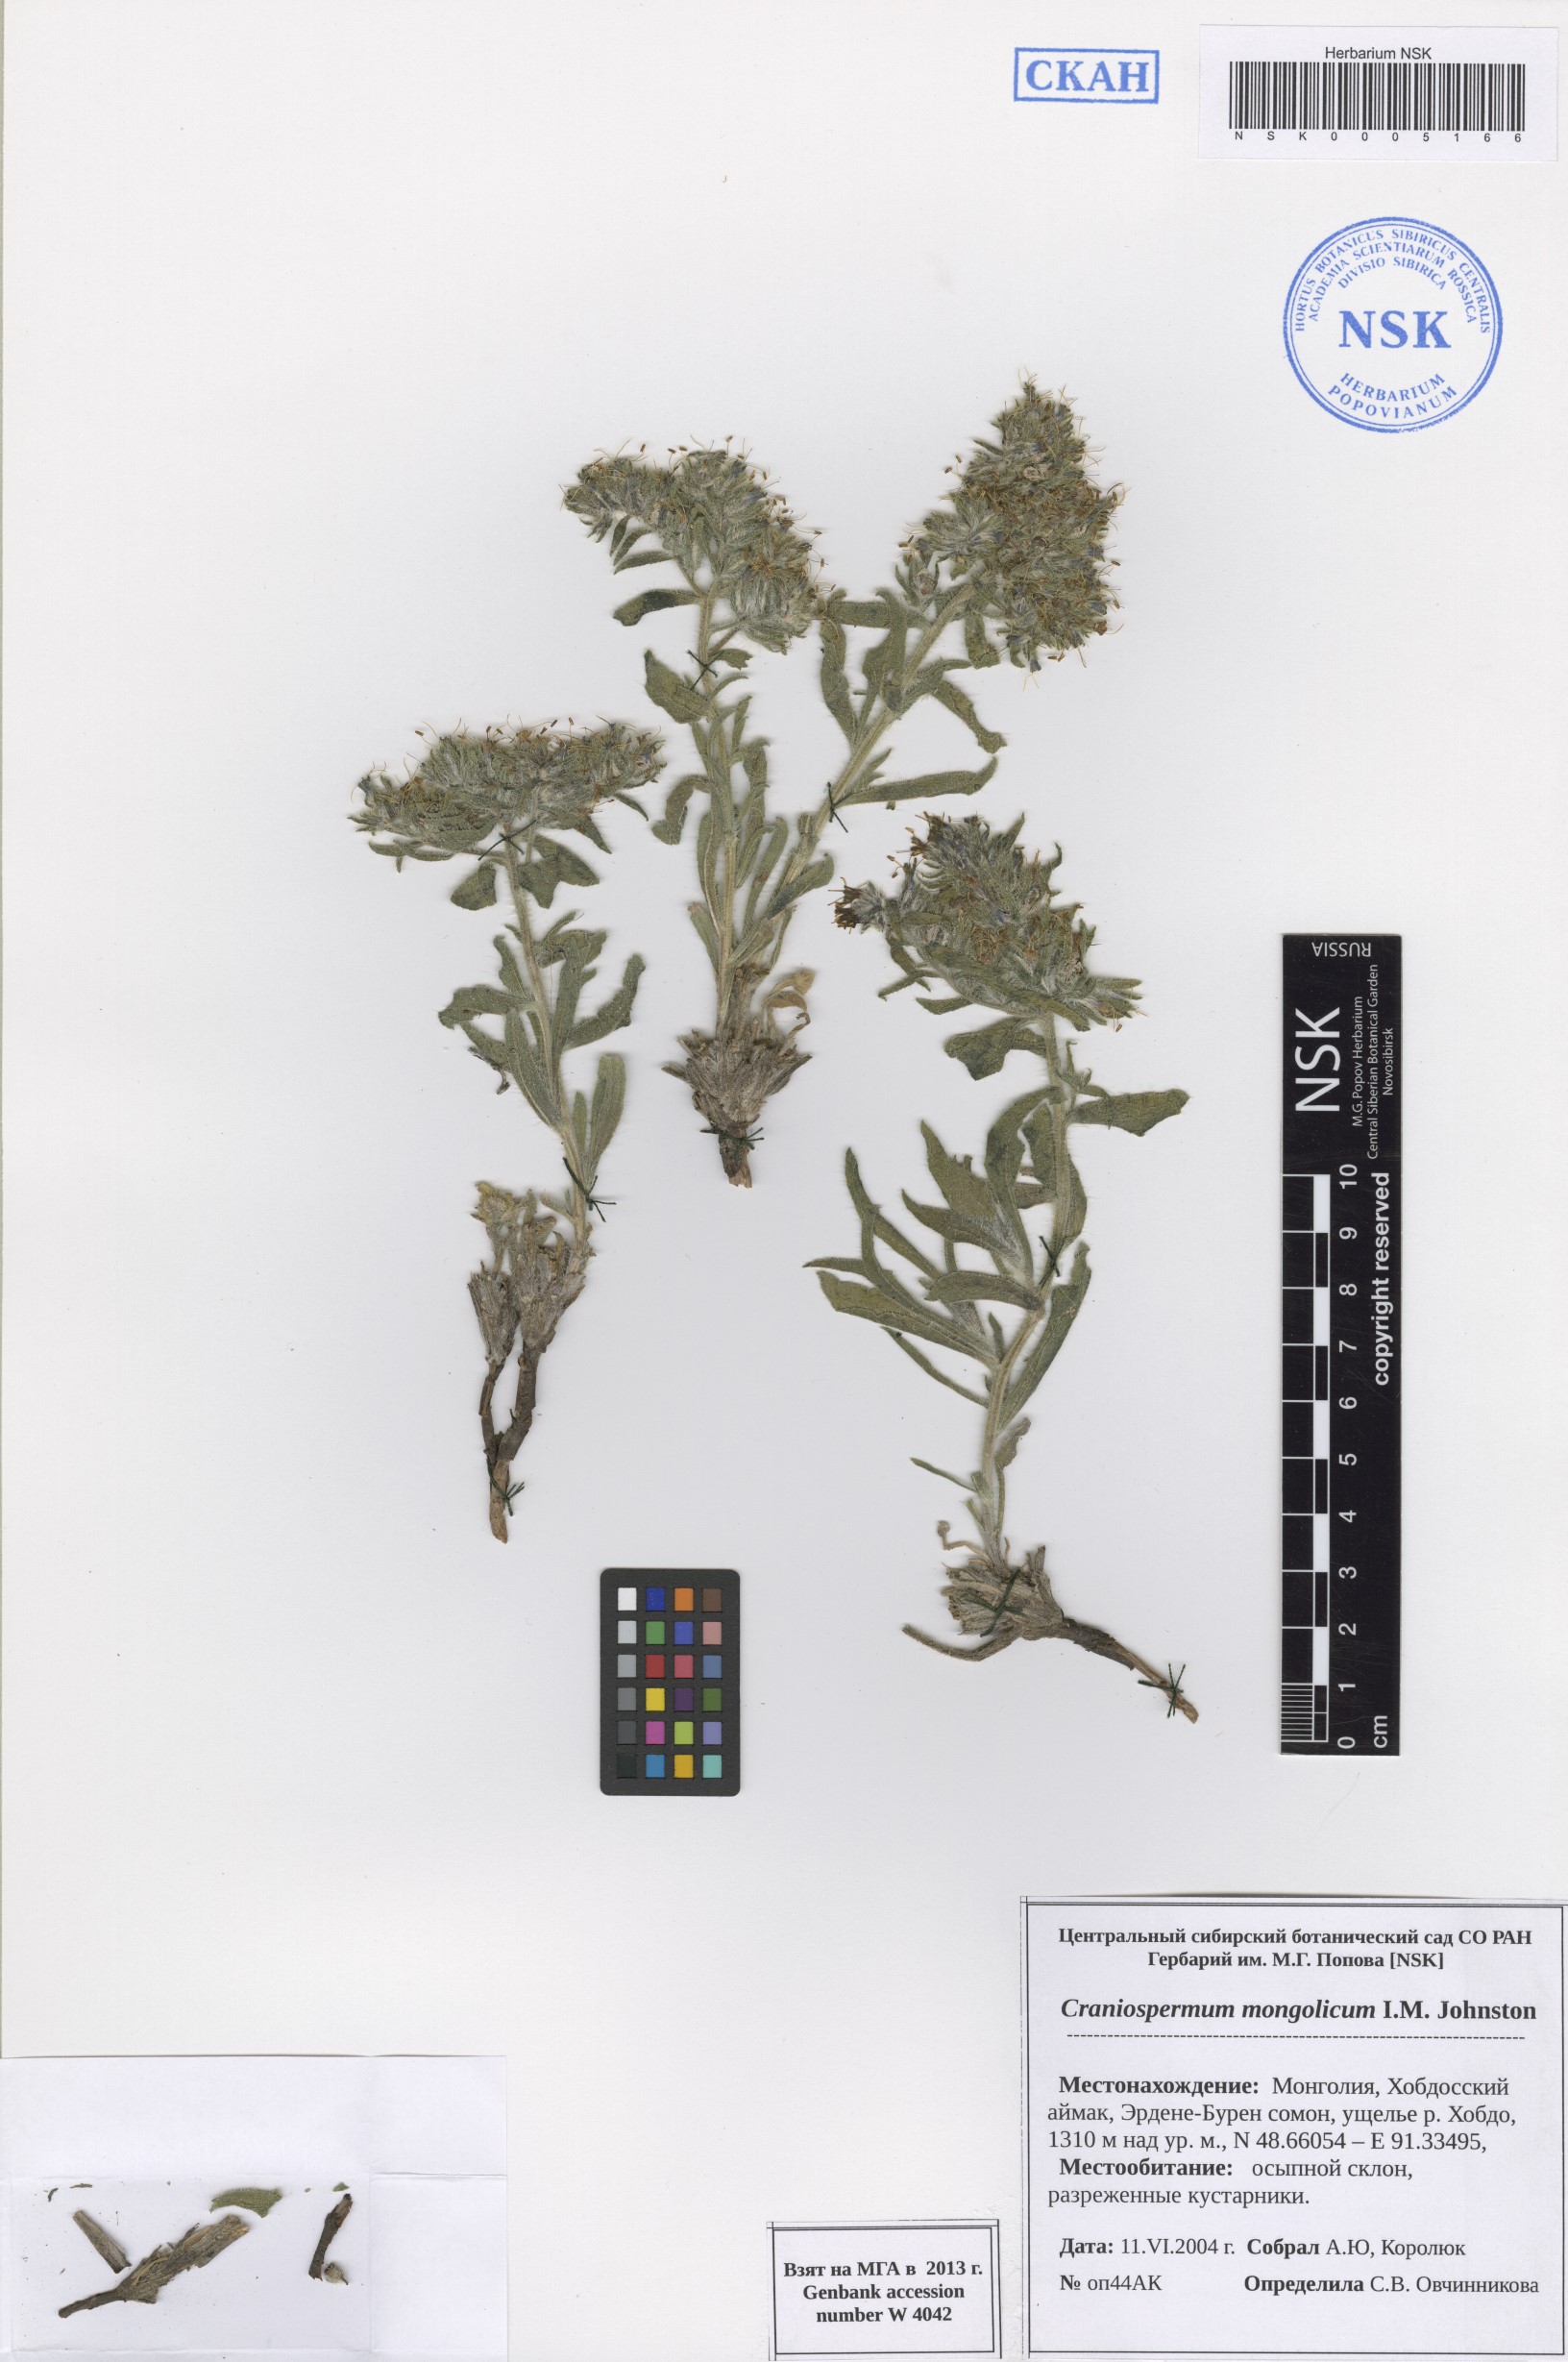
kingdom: Plantae
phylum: Tracheophyta
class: Magnoliopsida
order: Boraginales
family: Boraginaceae
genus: Craniospermum
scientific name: Craniospermum mongolicum
